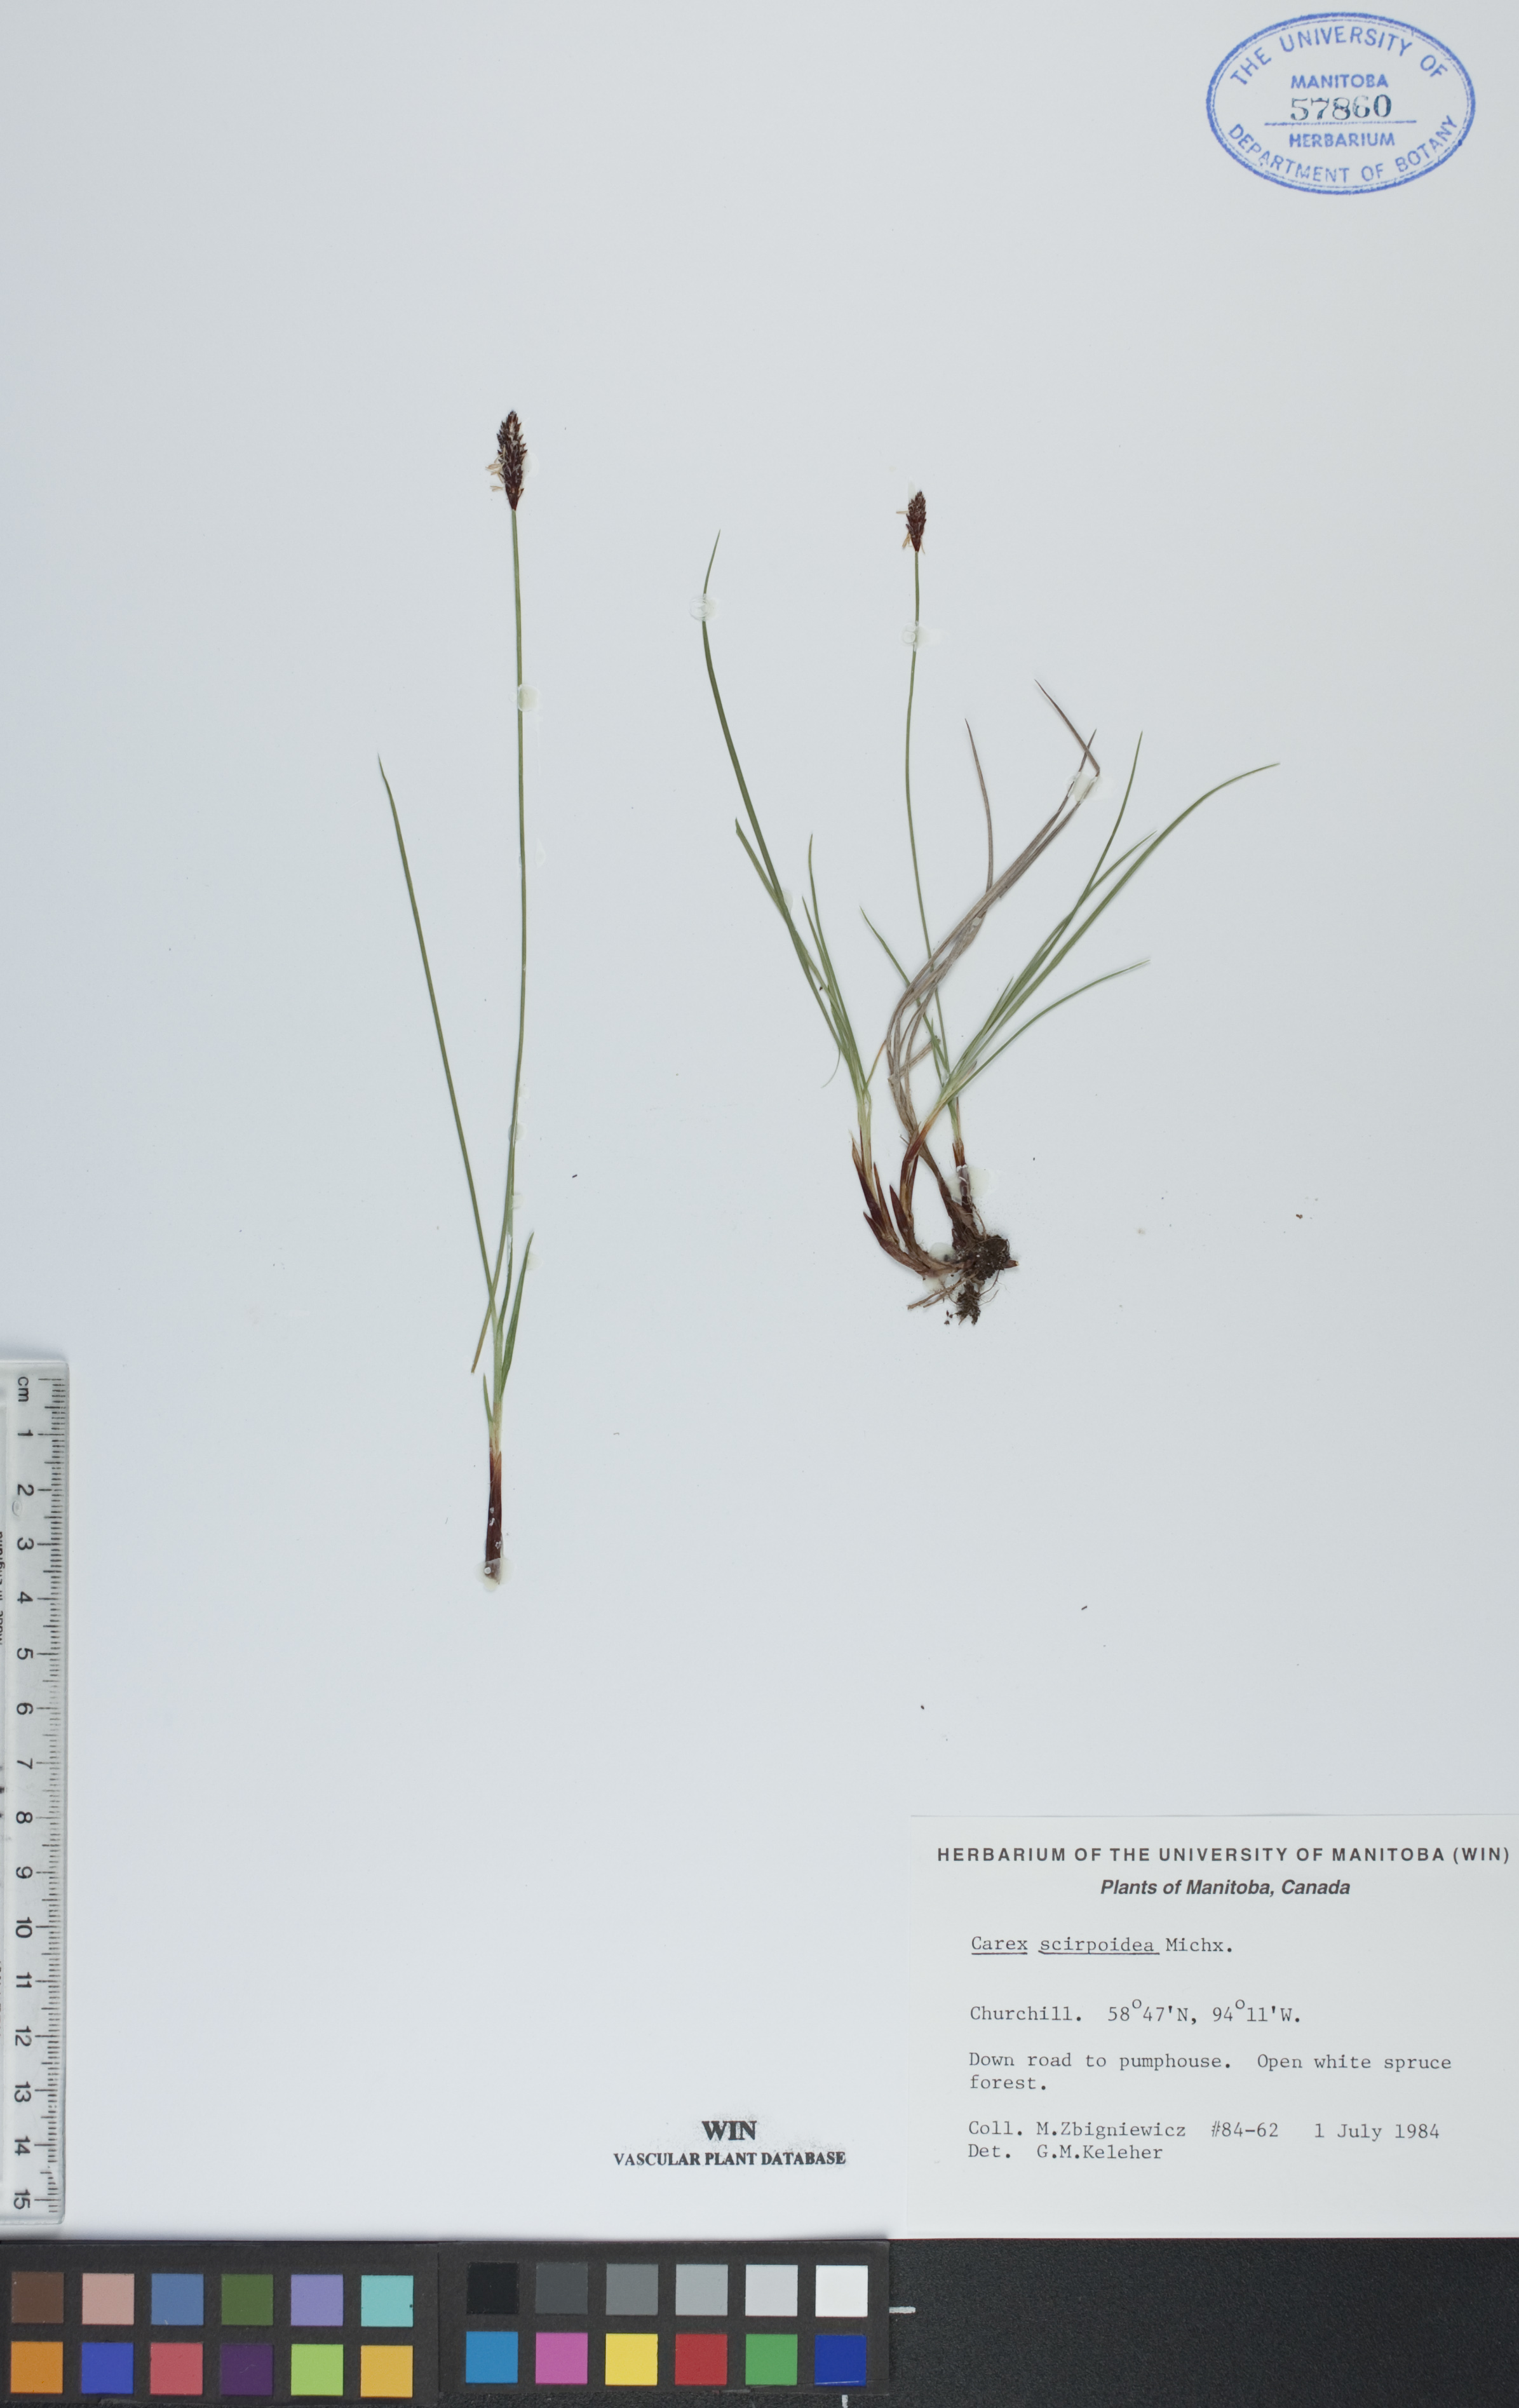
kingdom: Plantae
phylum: Tracheophyta
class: Liliopsida
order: Poales
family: Cyperaceae
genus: Carex
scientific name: Carex scirpoidea
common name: Canada single-spike sedge
